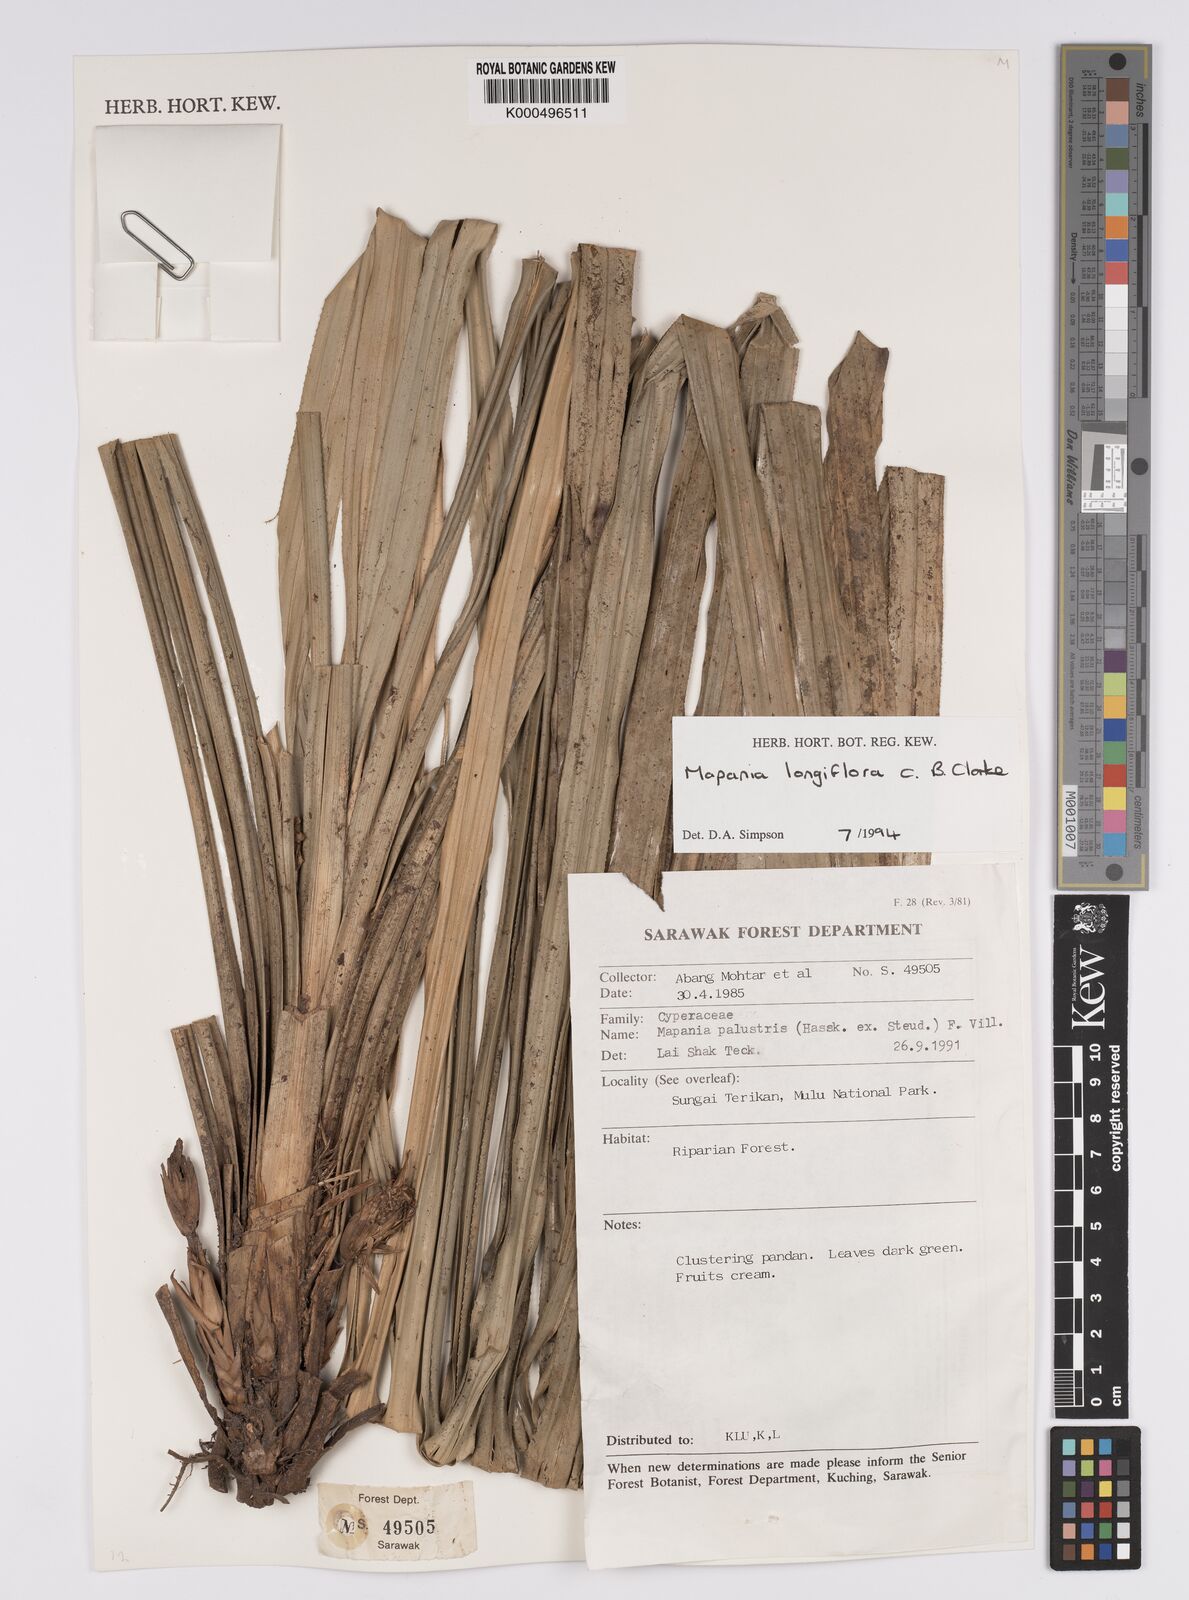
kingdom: Plantae
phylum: Tracheophyta
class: Liliopsida
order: Poales
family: Cyperaceae
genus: Mapania
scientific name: Mapania longiflora
